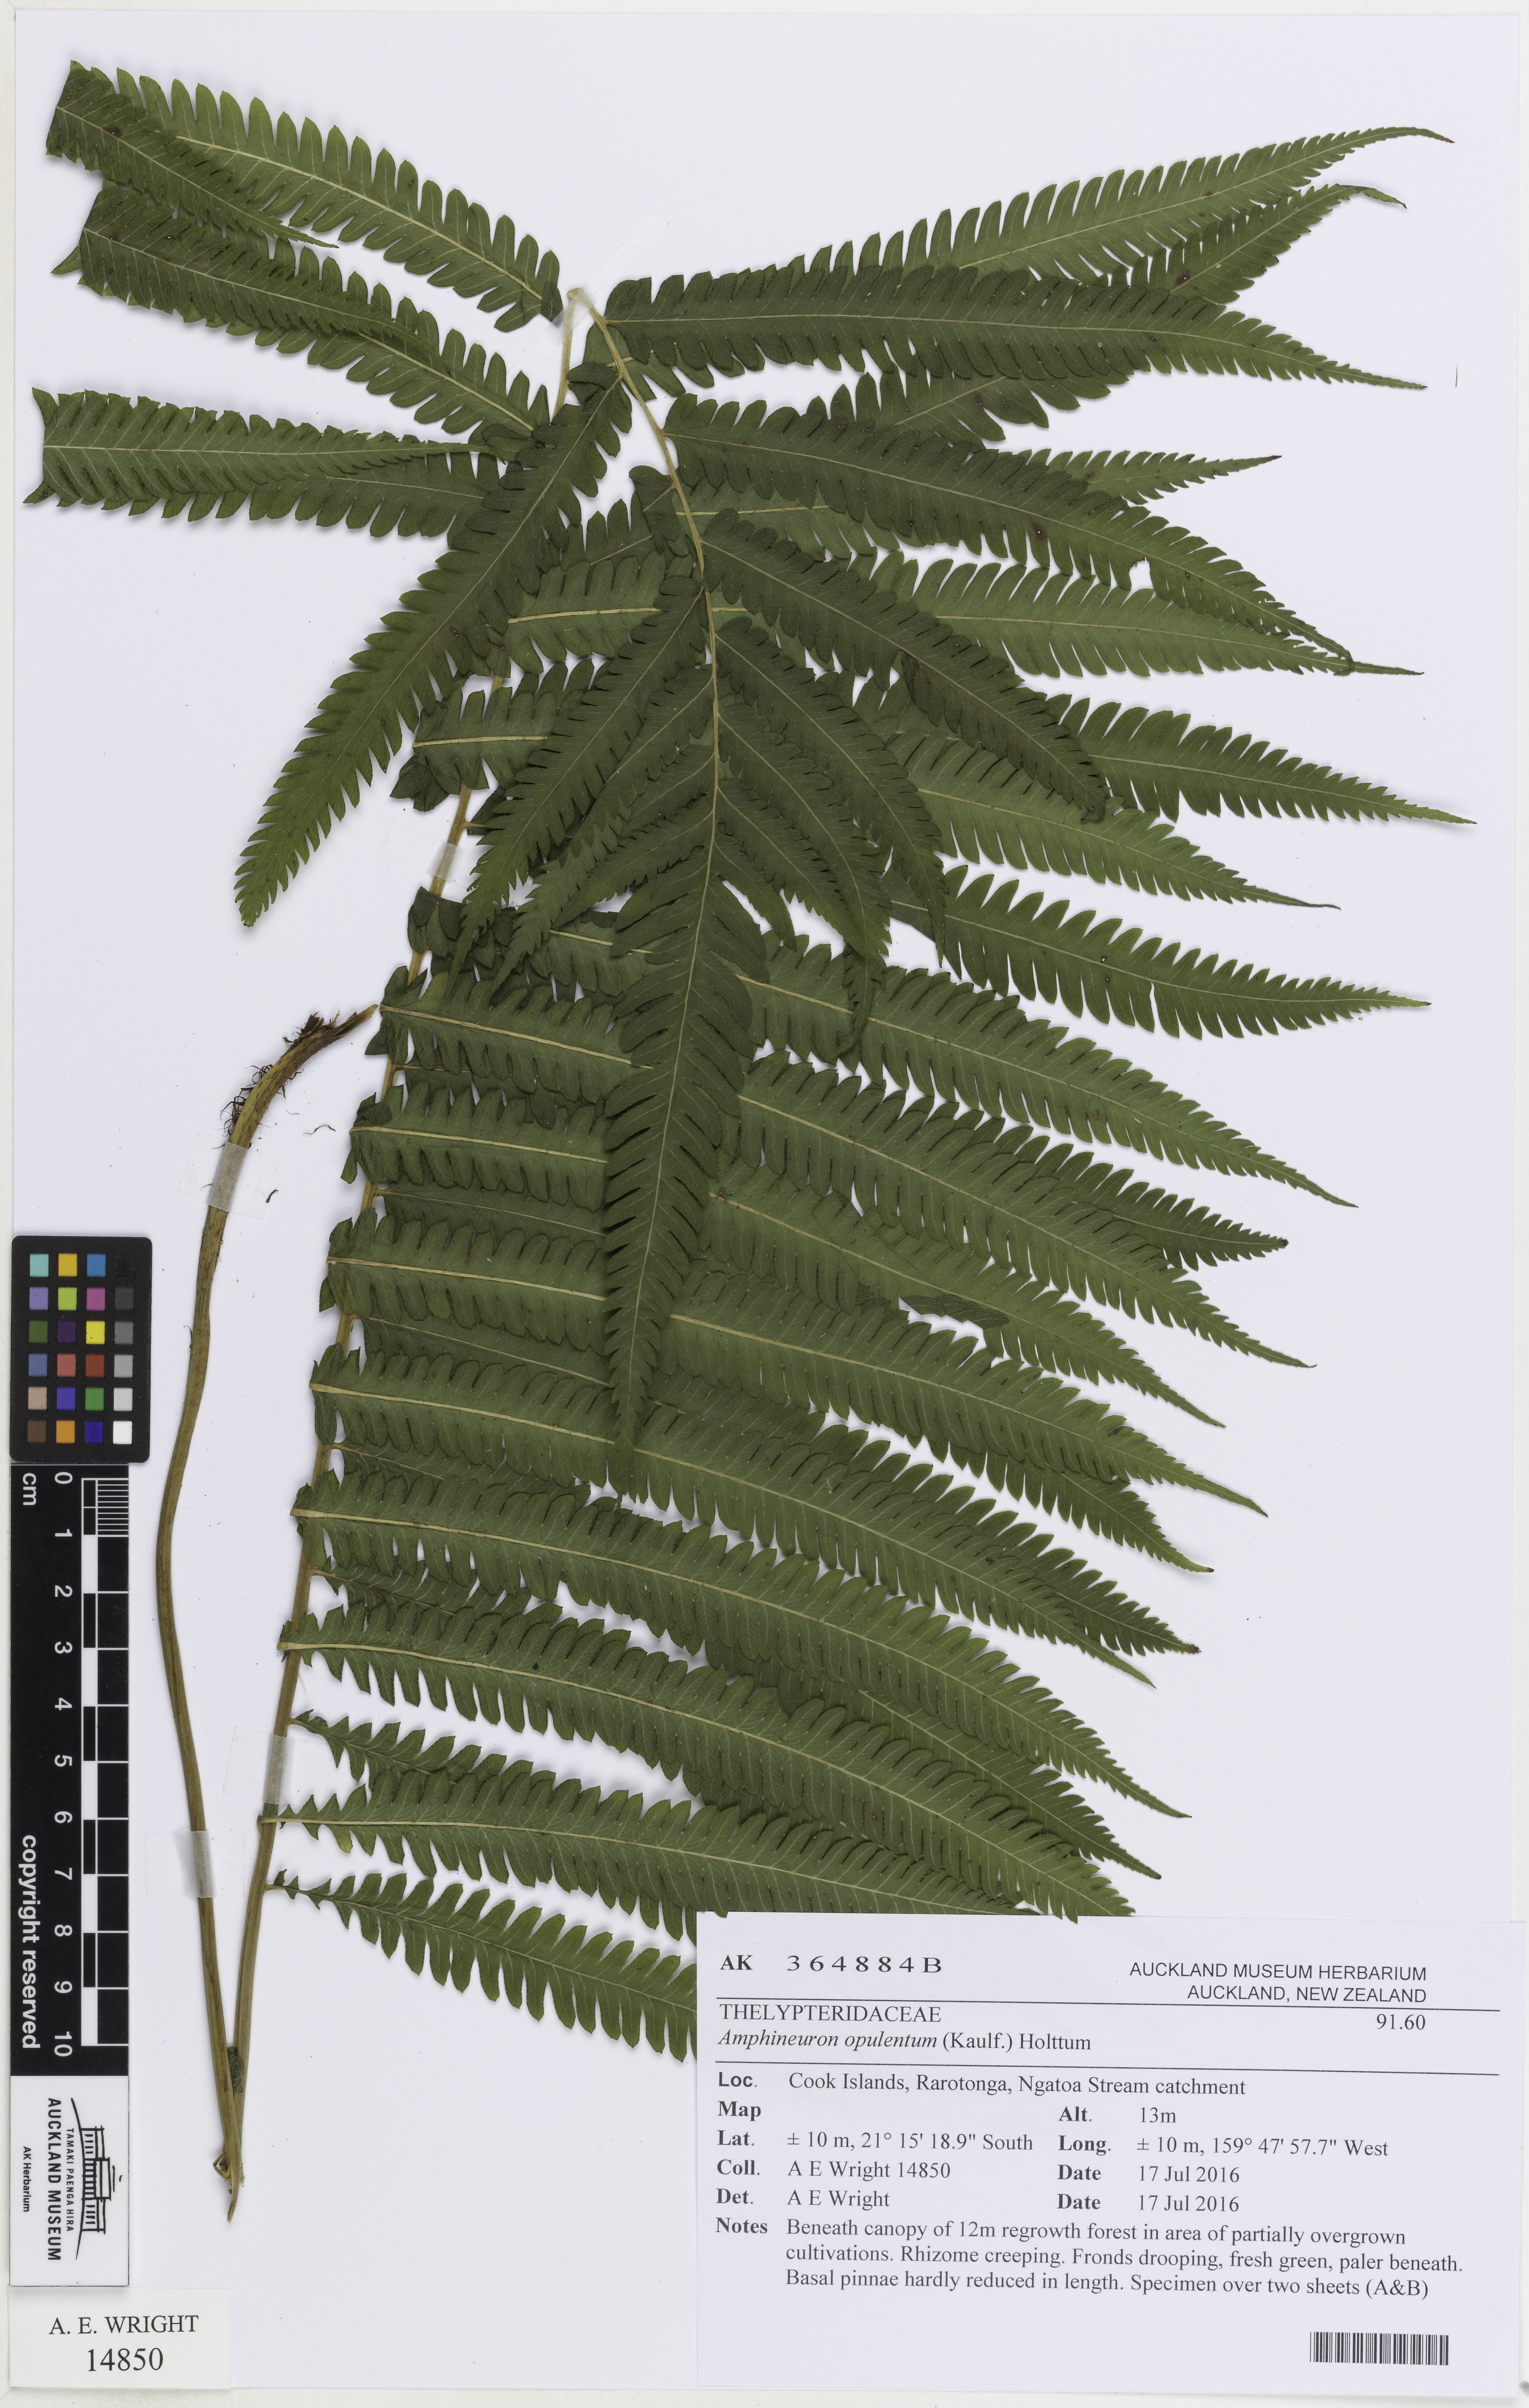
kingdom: Plantae
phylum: Tracheophyta
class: Polypodiopsida
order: Polypodiales
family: Thelypteridaceae
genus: Amblovenatum
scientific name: Amblovenatum opulentum
